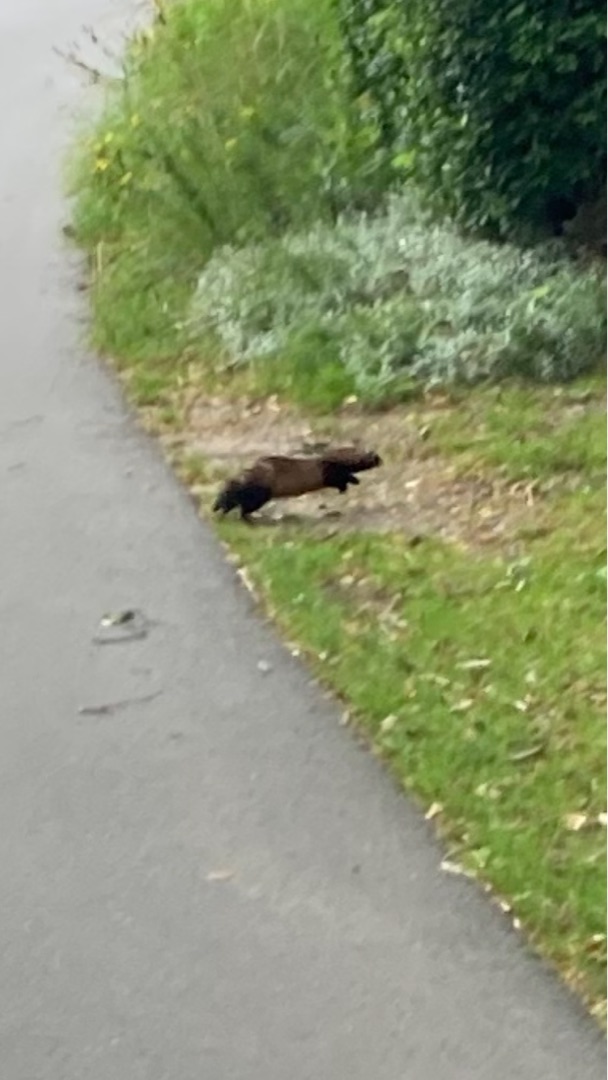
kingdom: Animalia
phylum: Chordata
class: Mammalia
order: Carnivora
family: Mustelidae
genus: Mustela
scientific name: Mustela putorius
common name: Ilder
